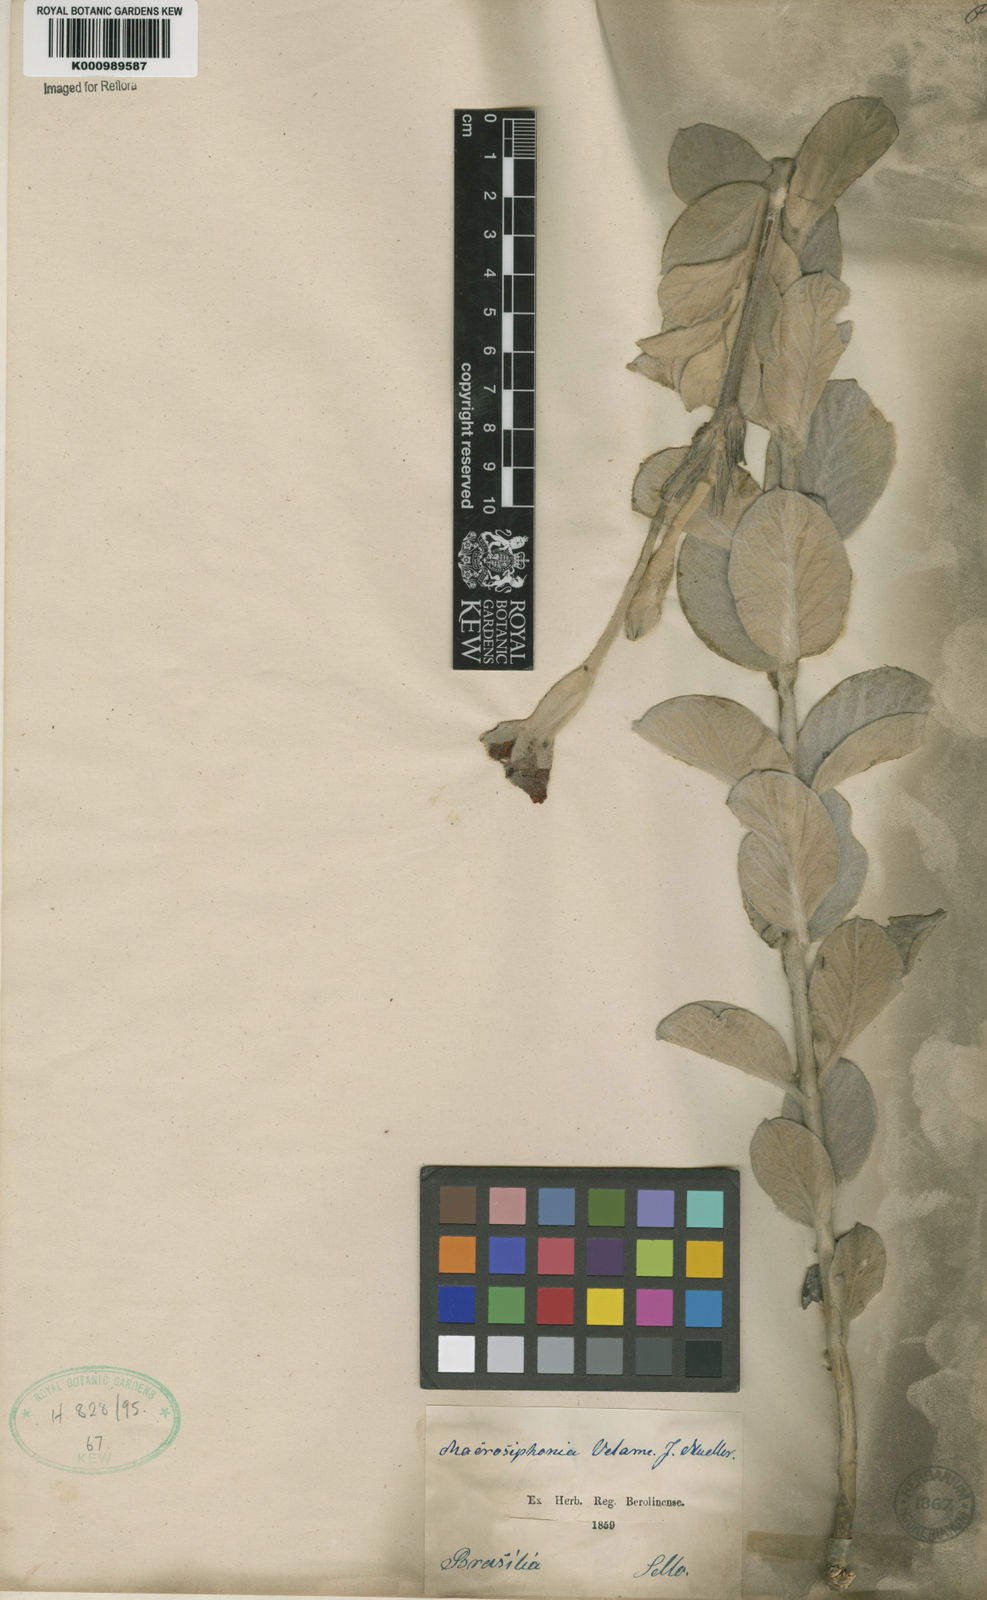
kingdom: Plantae
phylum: Tracheophyta
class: Magnoliopsida
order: Gentianales
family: Apocynaceae
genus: Mandevilla
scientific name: Mandevilla velame
